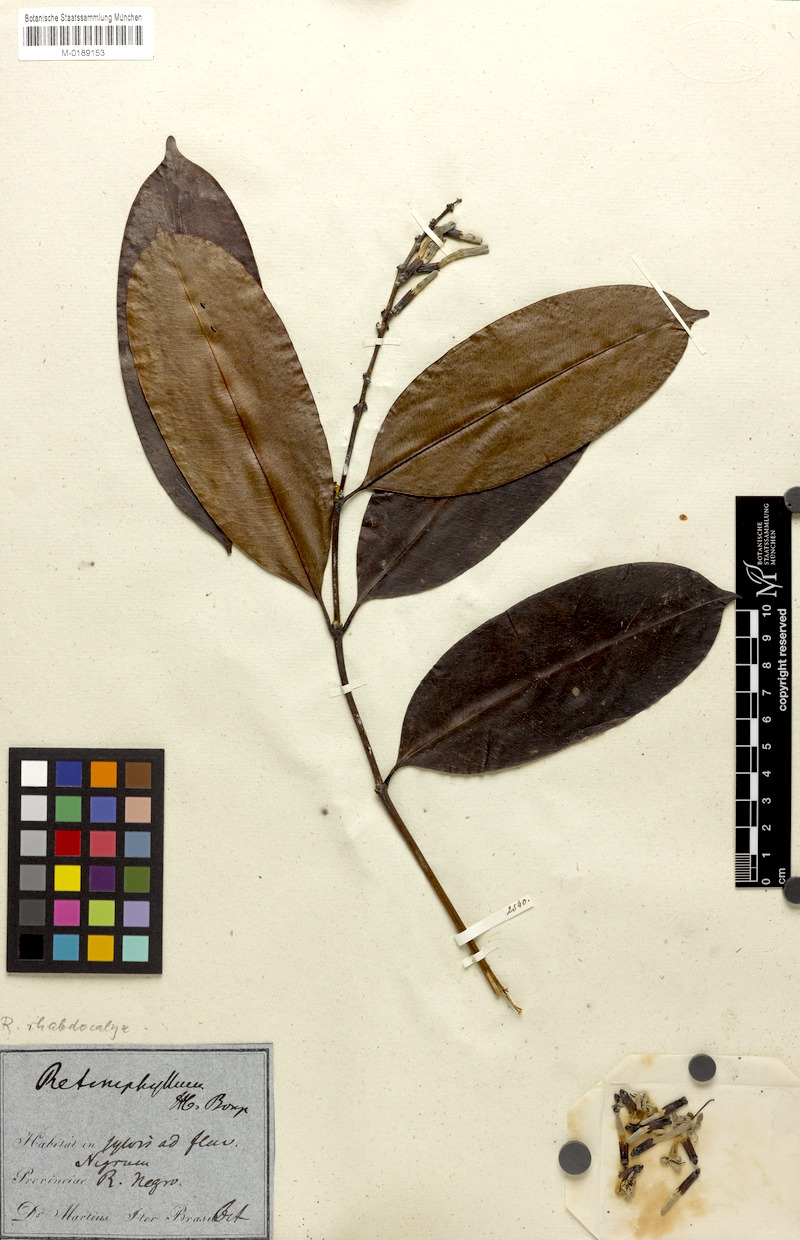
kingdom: Plantae
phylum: Tracheophyta
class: Magnoliopsida
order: Gentianales
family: Rubiaceae
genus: Retiniphyllum
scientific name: Retiniphyllum speciosum
